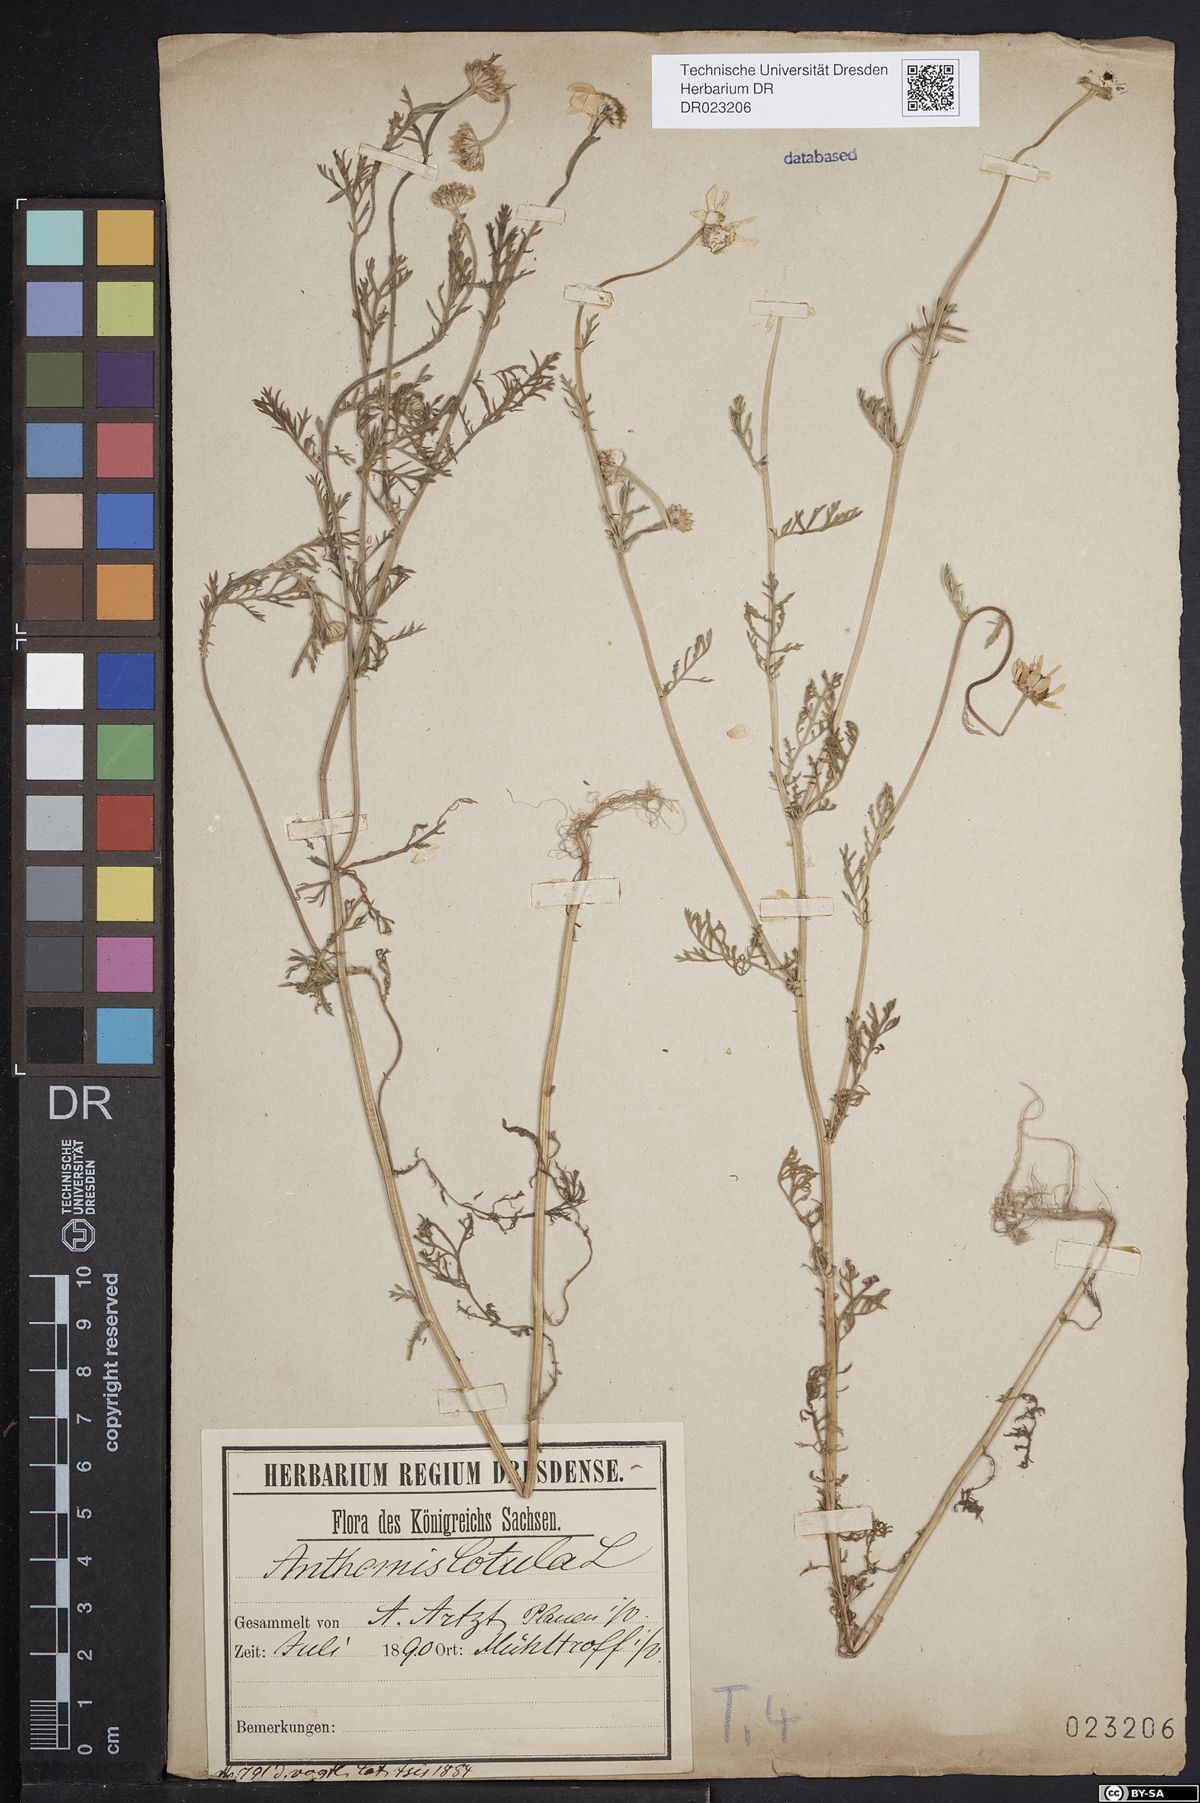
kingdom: Plantae
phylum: Tracheophyta
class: Magnoliopsida
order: Asterales
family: Asteraceae
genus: Anthemis
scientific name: Anthemis cotula
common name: Stinking chamomile
